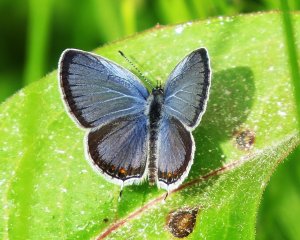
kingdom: Animalia
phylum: Arthropoda
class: Insecta
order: Lepidoptera
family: Lycaenidae
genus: Elkalyce
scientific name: Elkalyce comyntas
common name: Eastern Tailed-Blue
